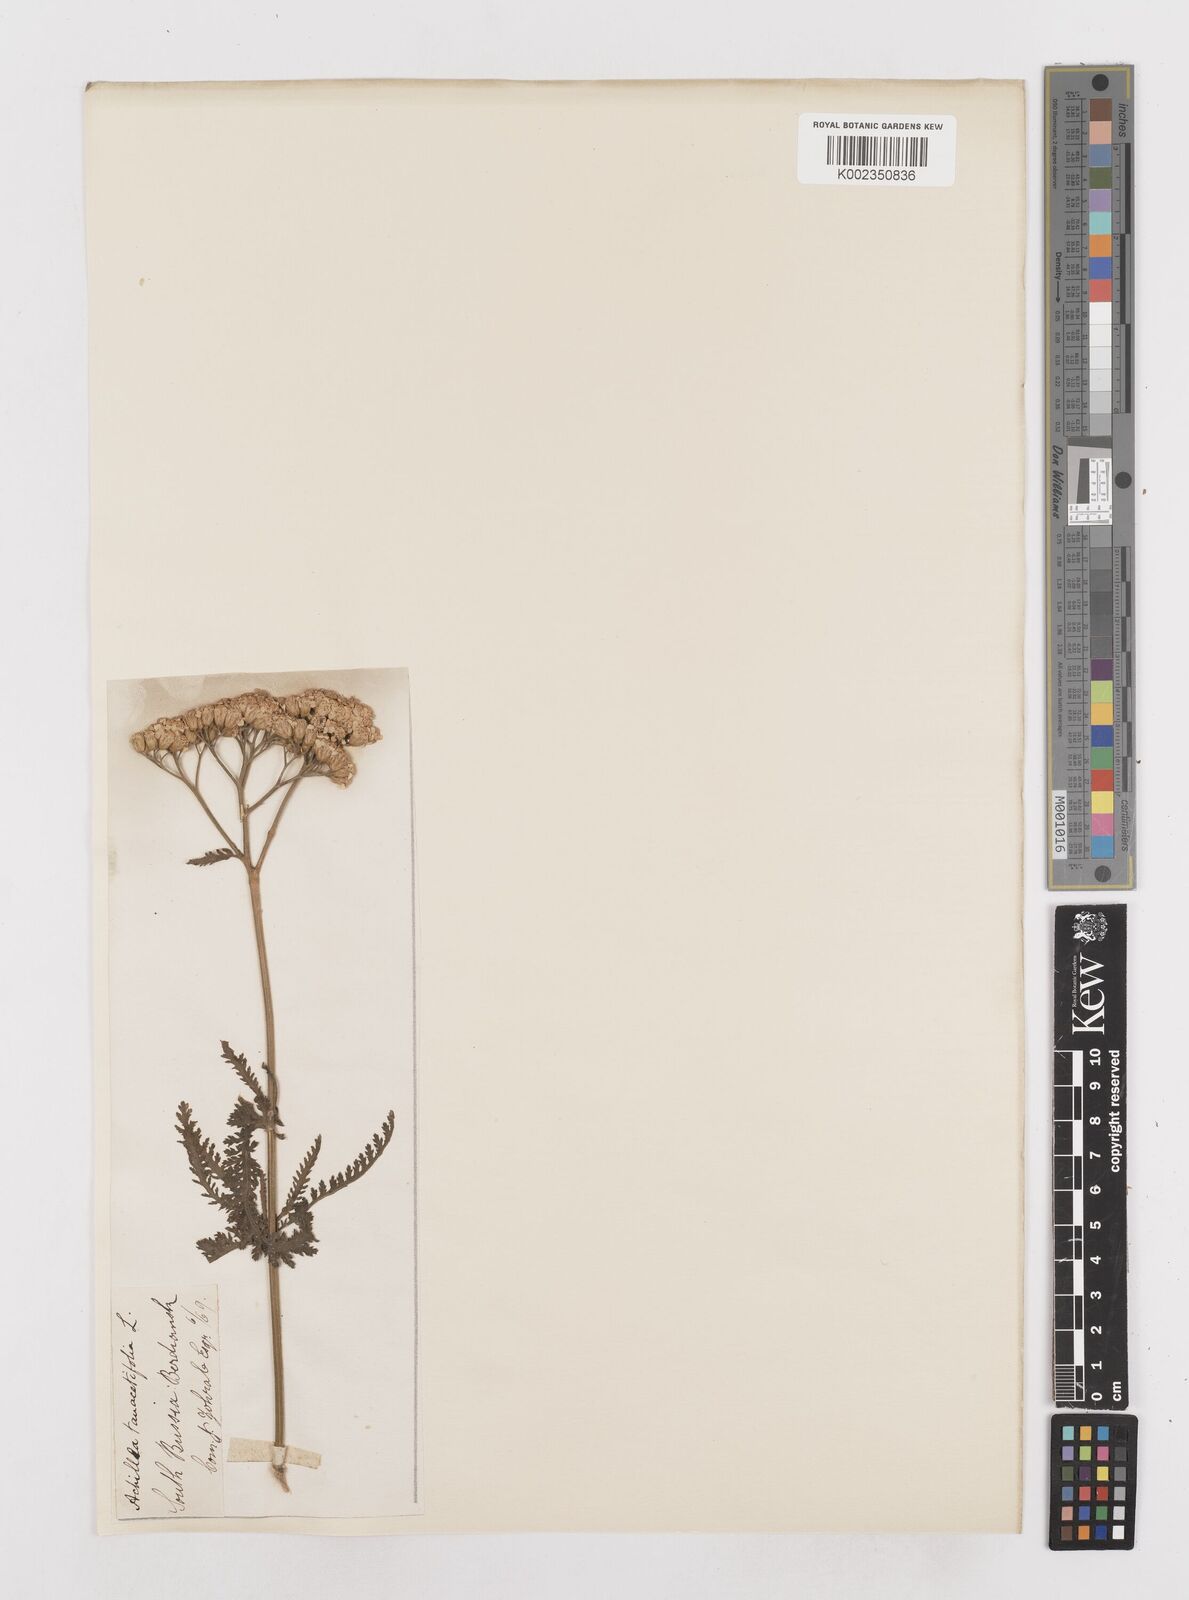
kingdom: Plantae
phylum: Tracheophyta
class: Magnoliopsida
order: Asterales
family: Asteraceae
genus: Achillea
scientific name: Achillea distans
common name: Tall yarrow
